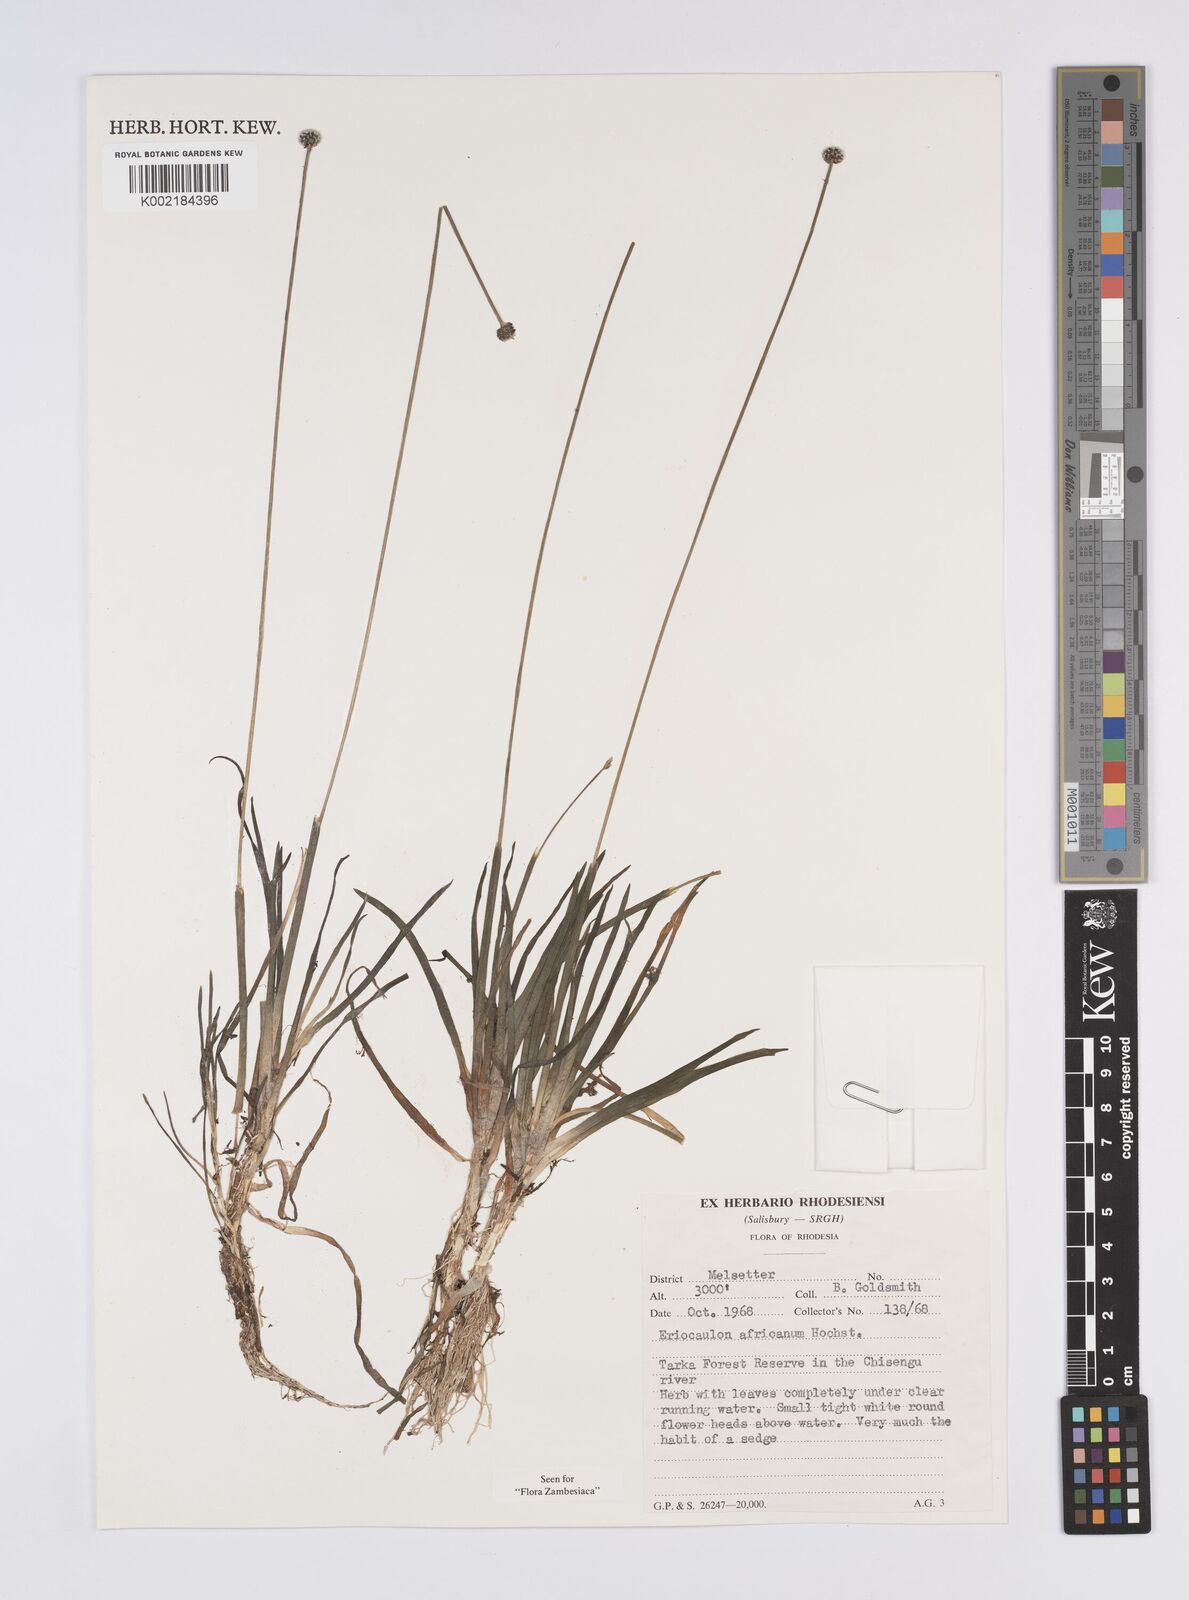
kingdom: Plantae
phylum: Tracheophyta
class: Liliopsida
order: Poales
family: Eriocaulaceae
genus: Eriocaulon
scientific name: Eriocaulon africanum
